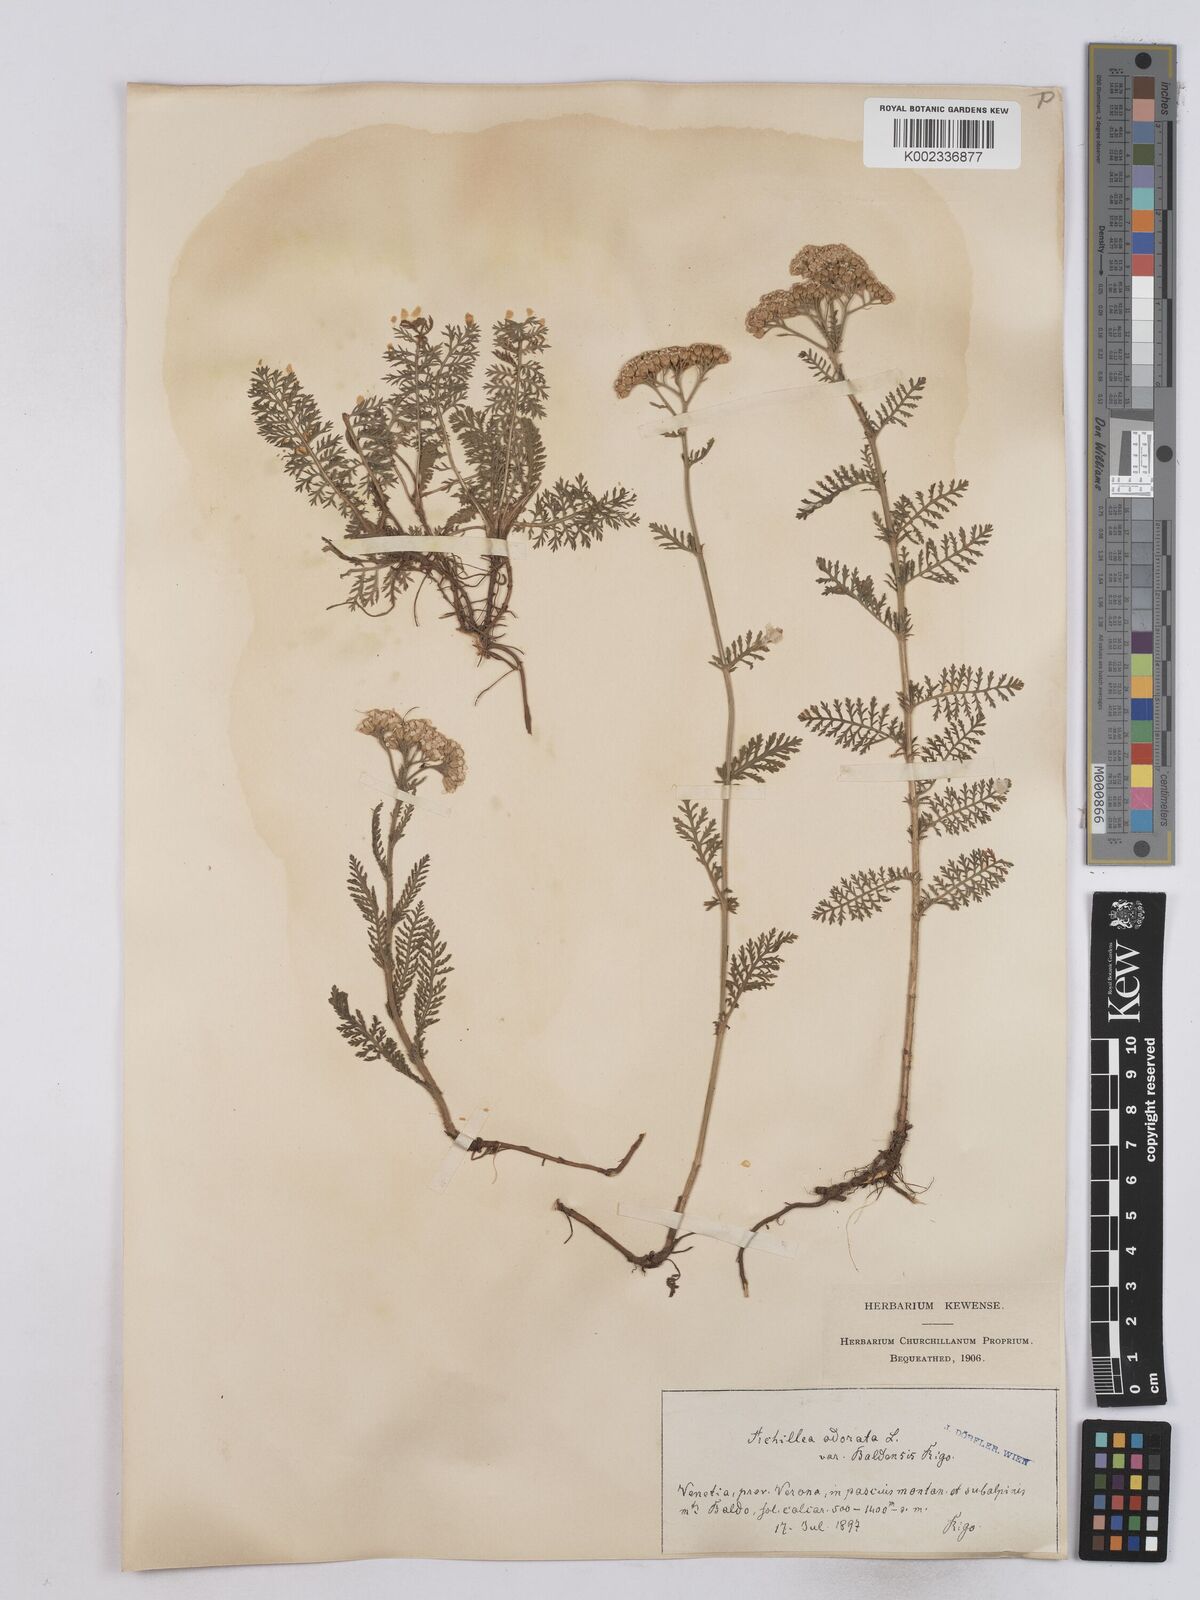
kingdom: Plantae
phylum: Tracheophyta
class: Magnoliopsida
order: Asterales
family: Asteraceae
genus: Achillea
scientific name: Achillea odorata
